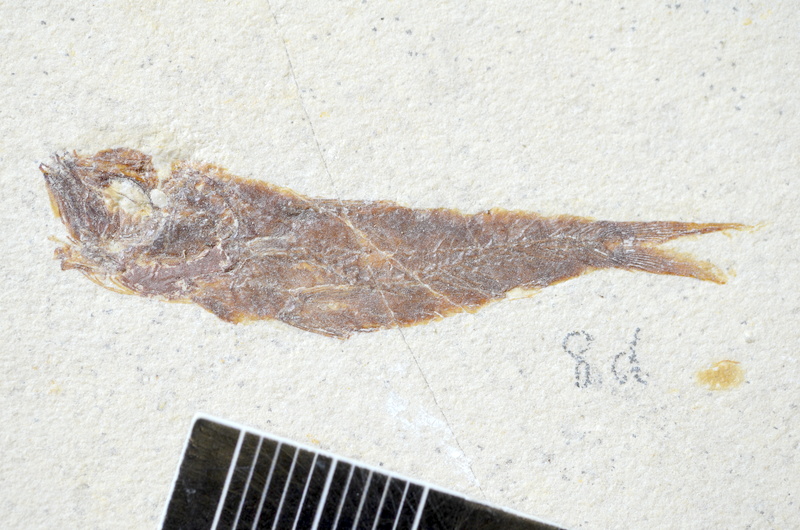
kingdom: Animalia
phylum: Chordata
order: Clupeiformes
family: Clupeidae
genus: Clupea
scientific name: Clupea harengus
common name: Herring
